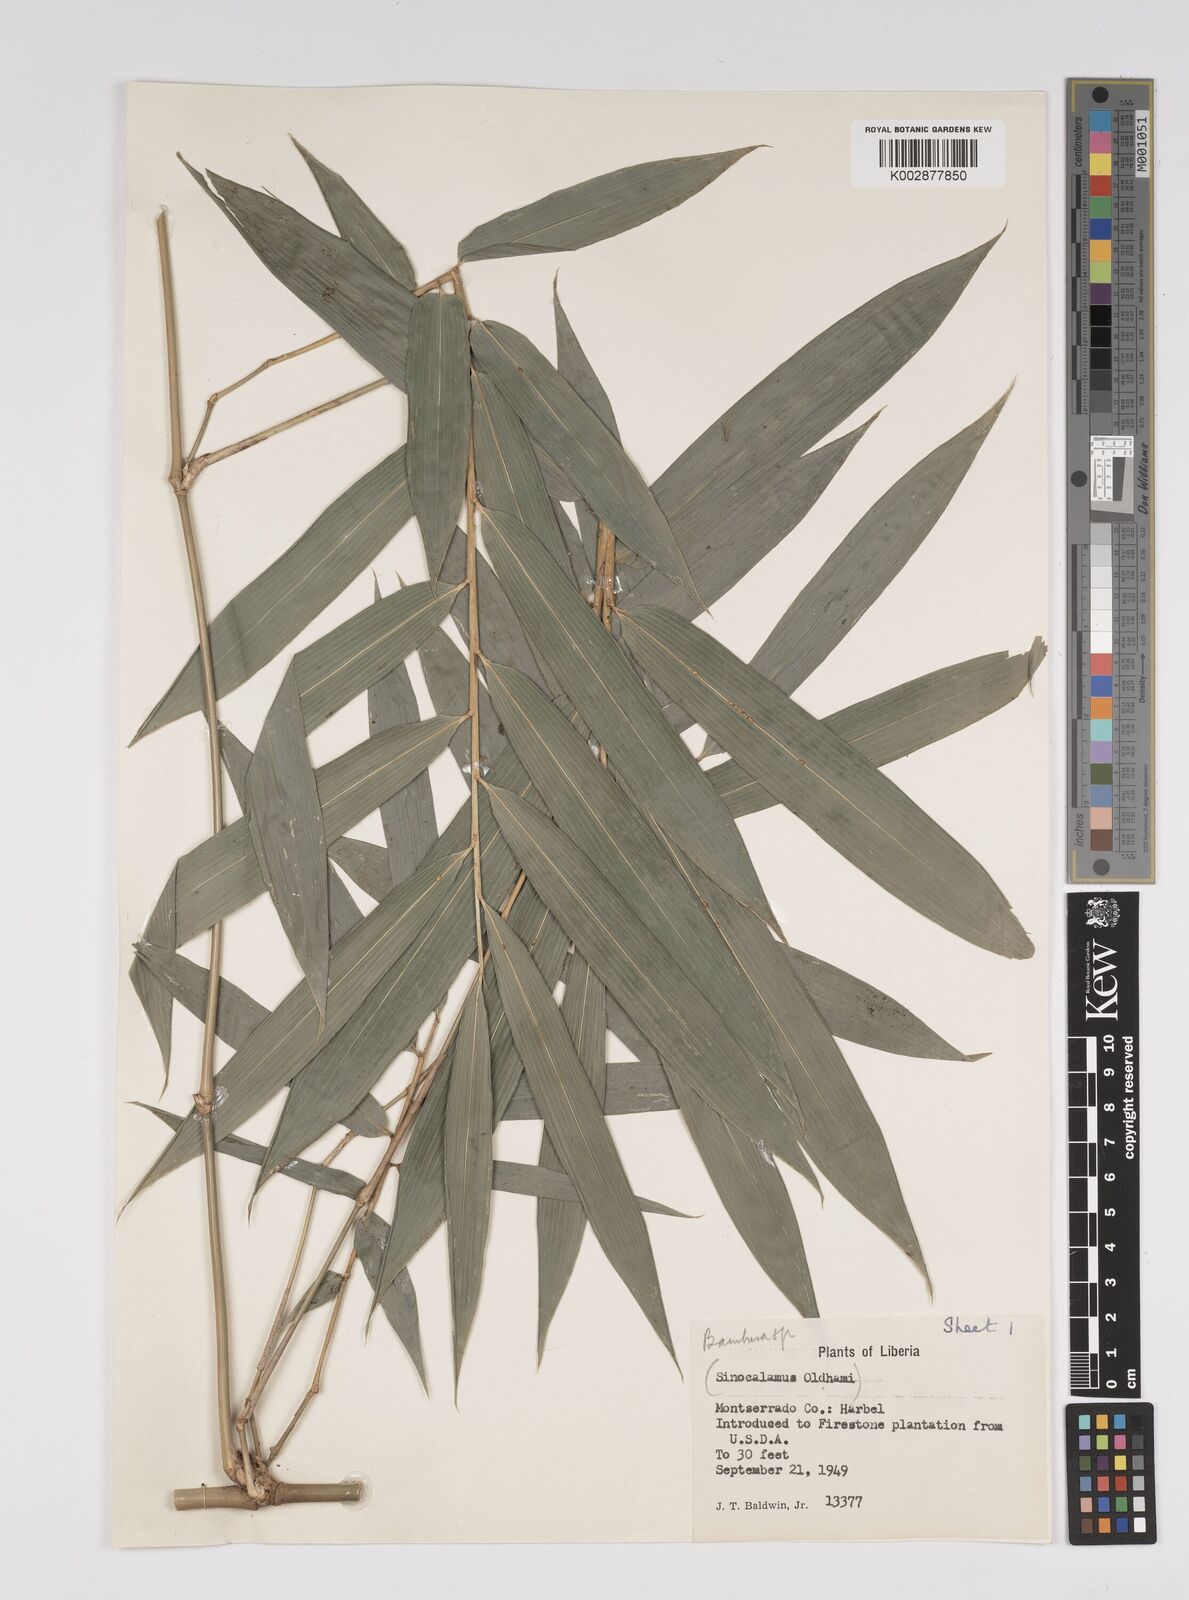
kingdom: Plantae
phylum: Tracheophyta
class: Liliopsida
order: Poales
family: Poaceae
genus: Bambusa
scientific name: Bambusa
